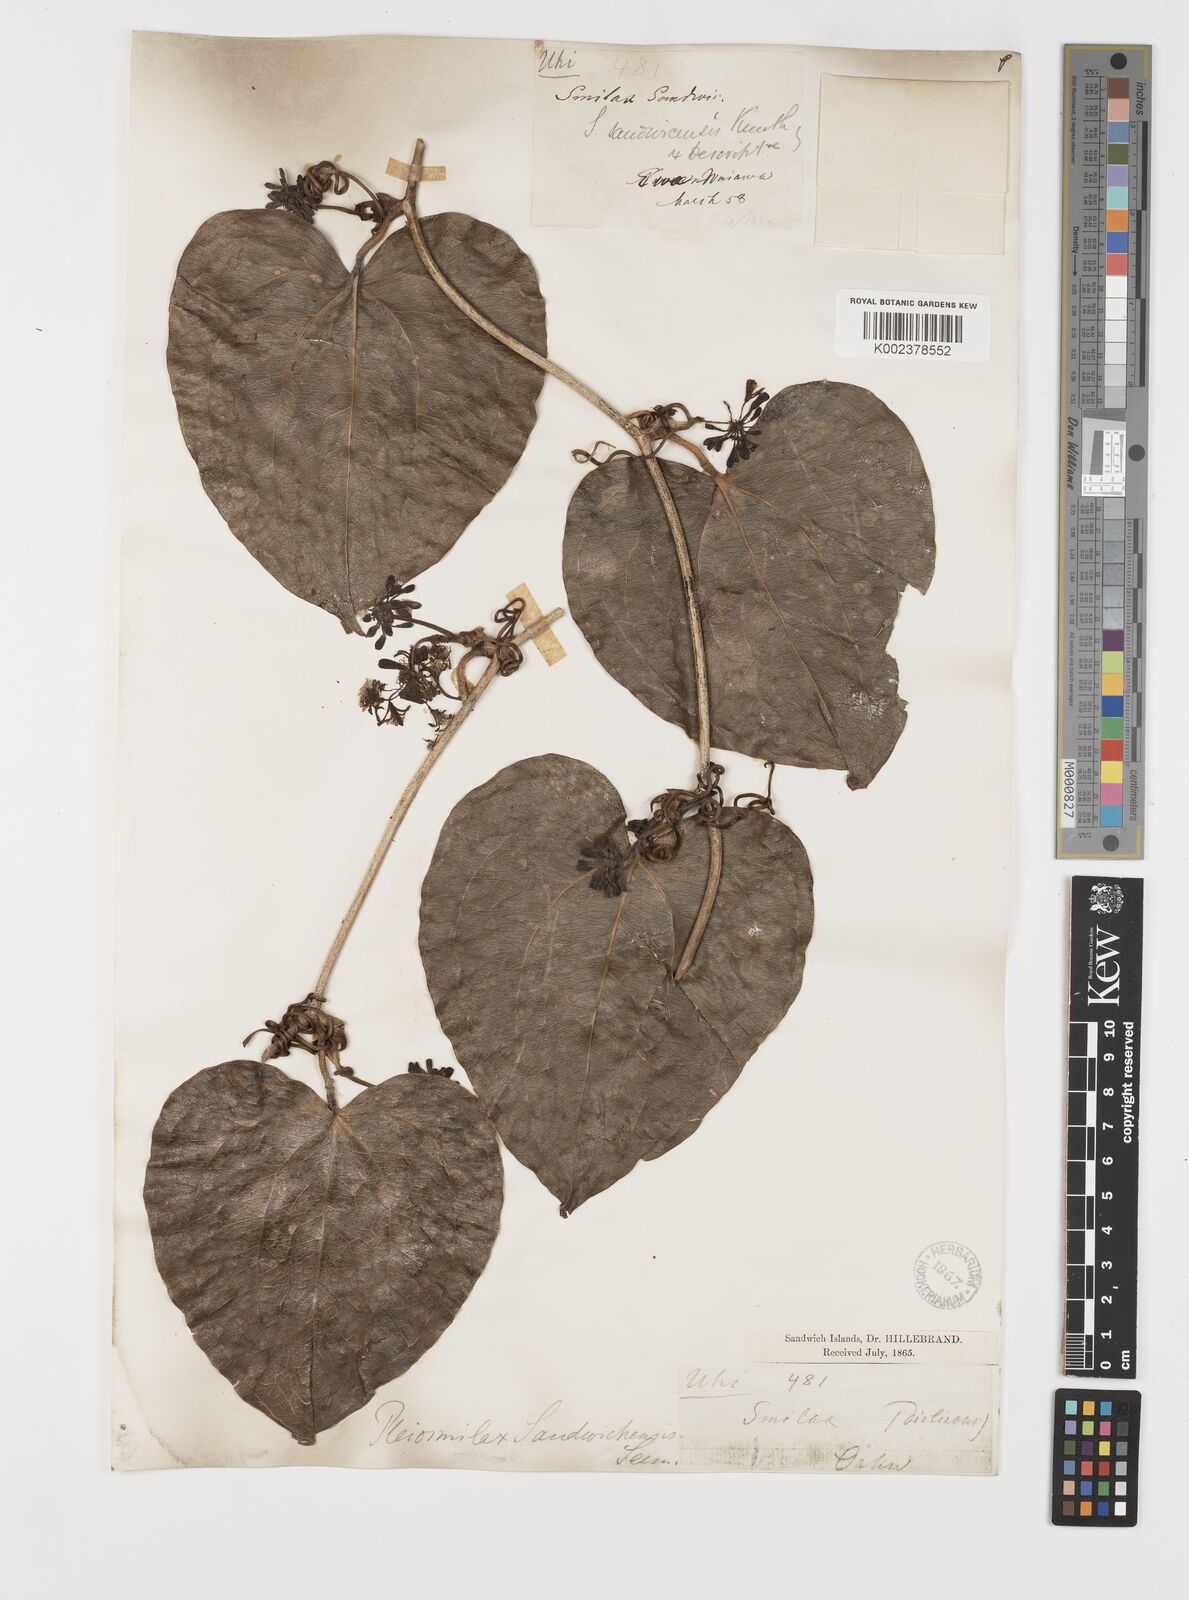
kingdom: Plantae
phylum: Tracheophyta
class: Liliopsida
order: Liliales
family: Smilacaceae
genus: Smilax
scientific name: Smilax melastomifolia
